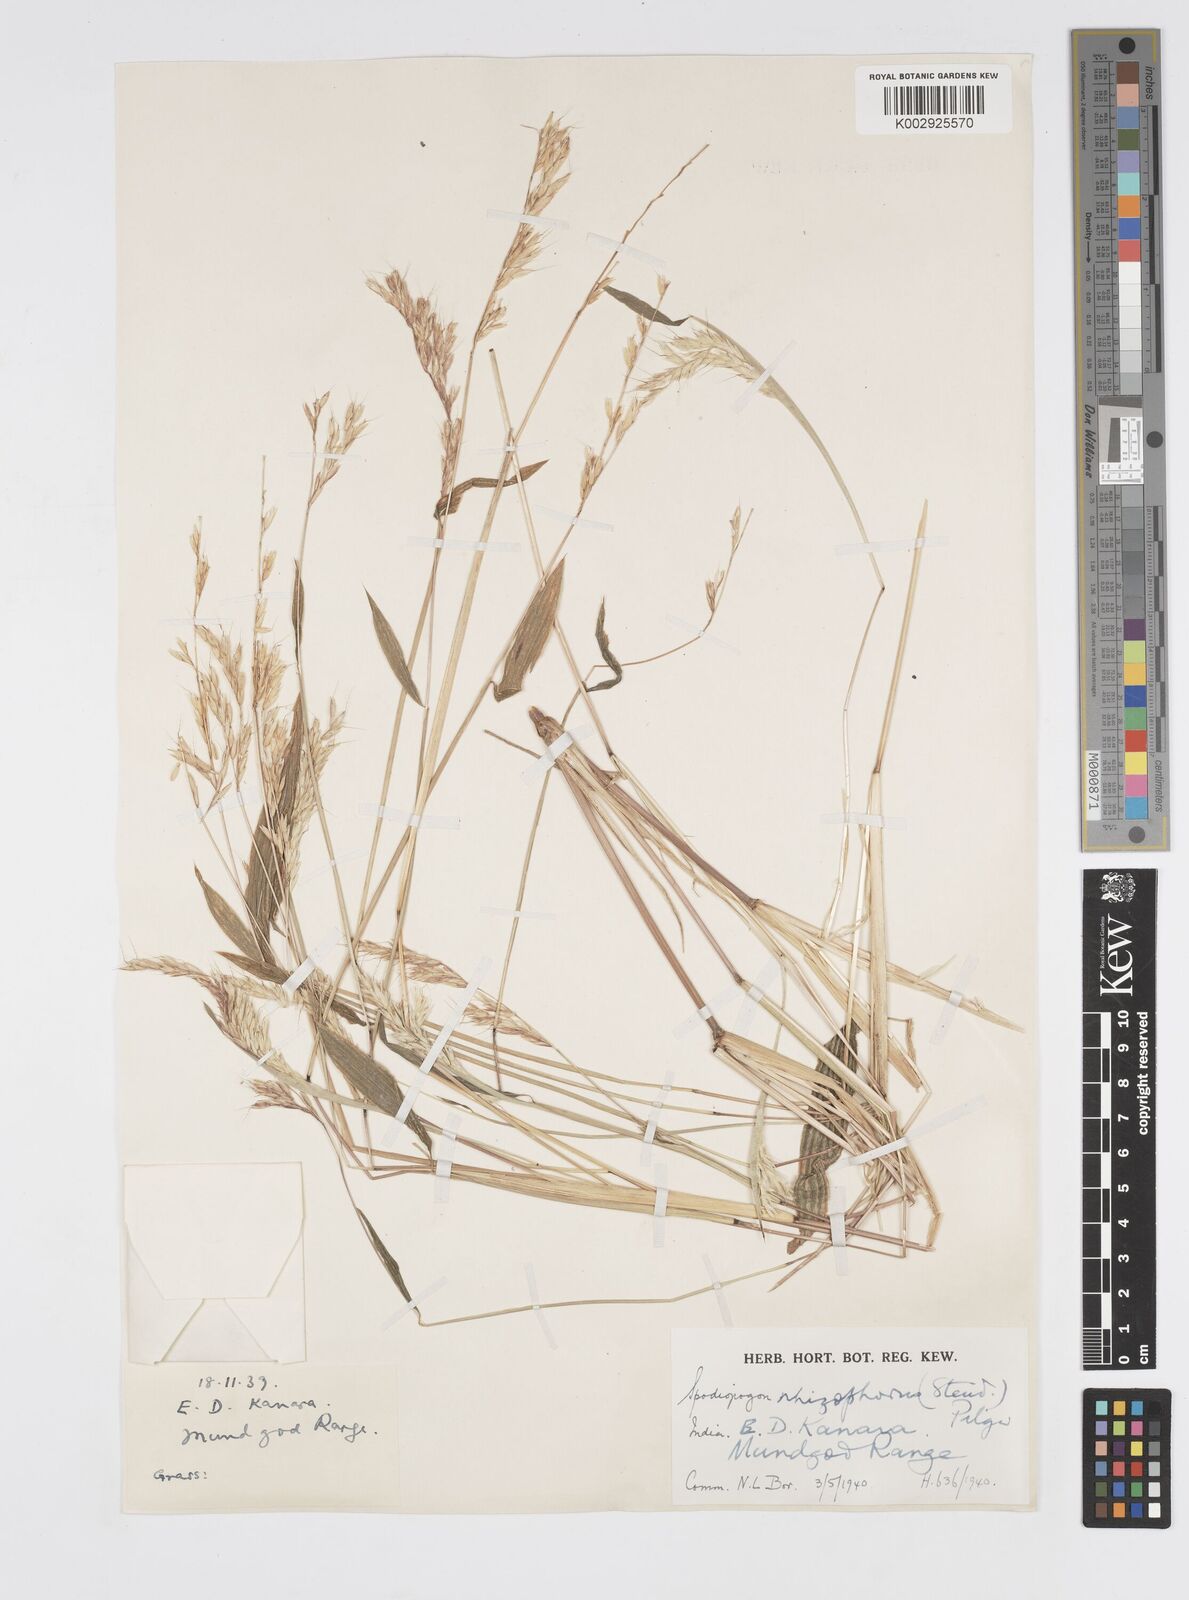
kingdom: Plantae
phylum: Tracheophyta
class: Liliopsida
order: Poales
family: Poaceae
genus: Spodiopogon
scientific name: Spodiopogon rhizophorus
